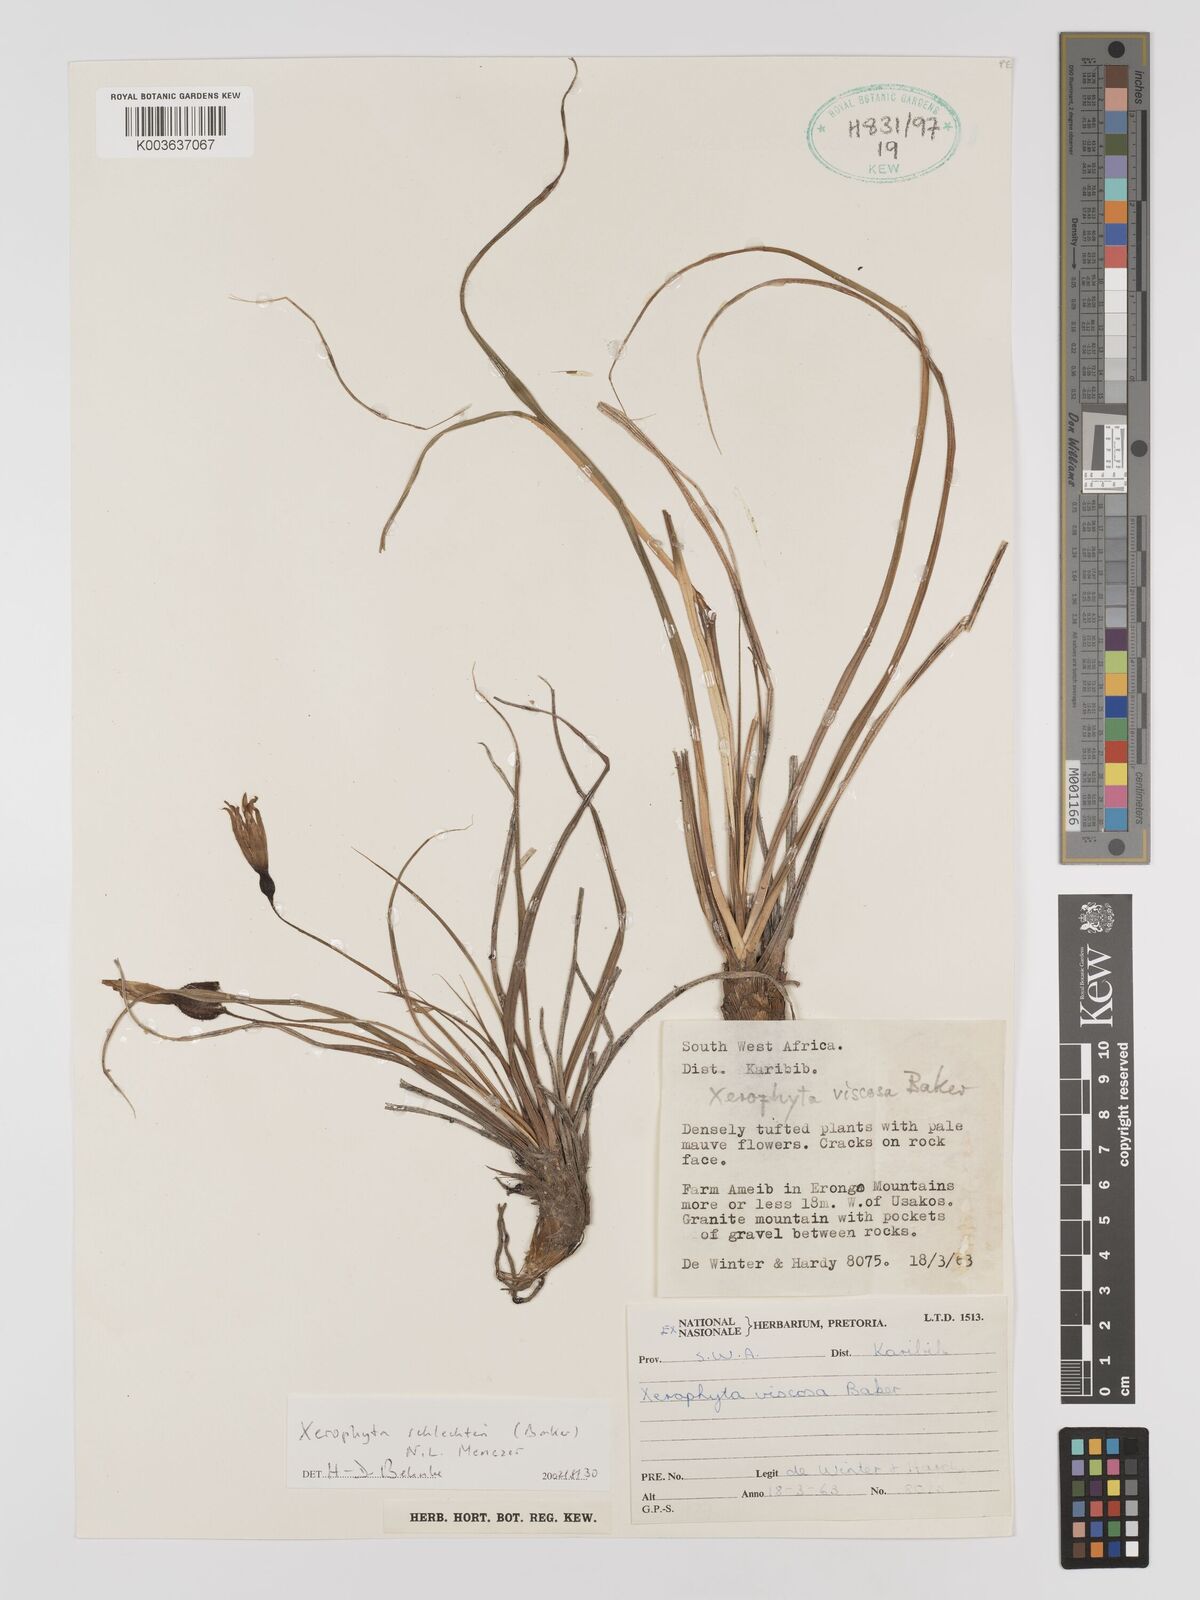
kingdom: Plantae
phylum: Tracheophyta
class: Liliopsida
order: Pandanales
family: Velloziaceae
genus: Xerophyta
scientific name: Xerophyta schlechteri
